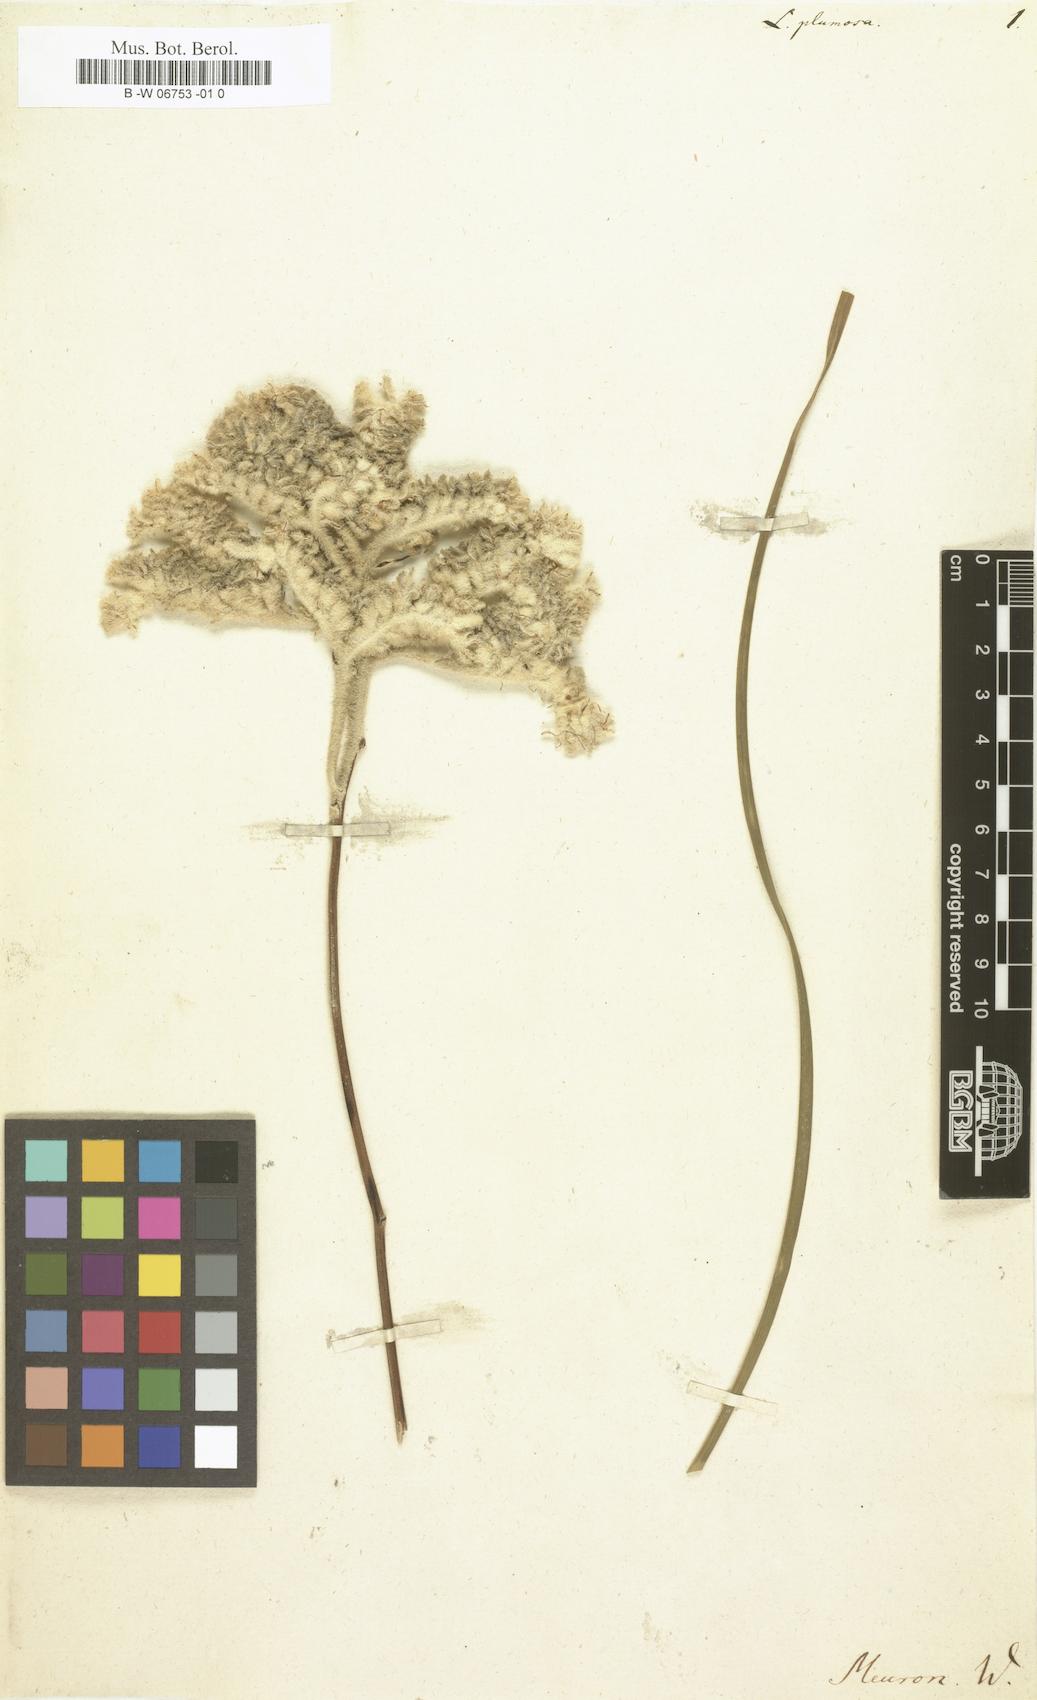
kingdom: Plantae
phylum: Tracheophyta
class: Liliopsida
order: Asparagales
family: Lanariaceae
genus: Lanaria
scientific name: Lanaria lanata
